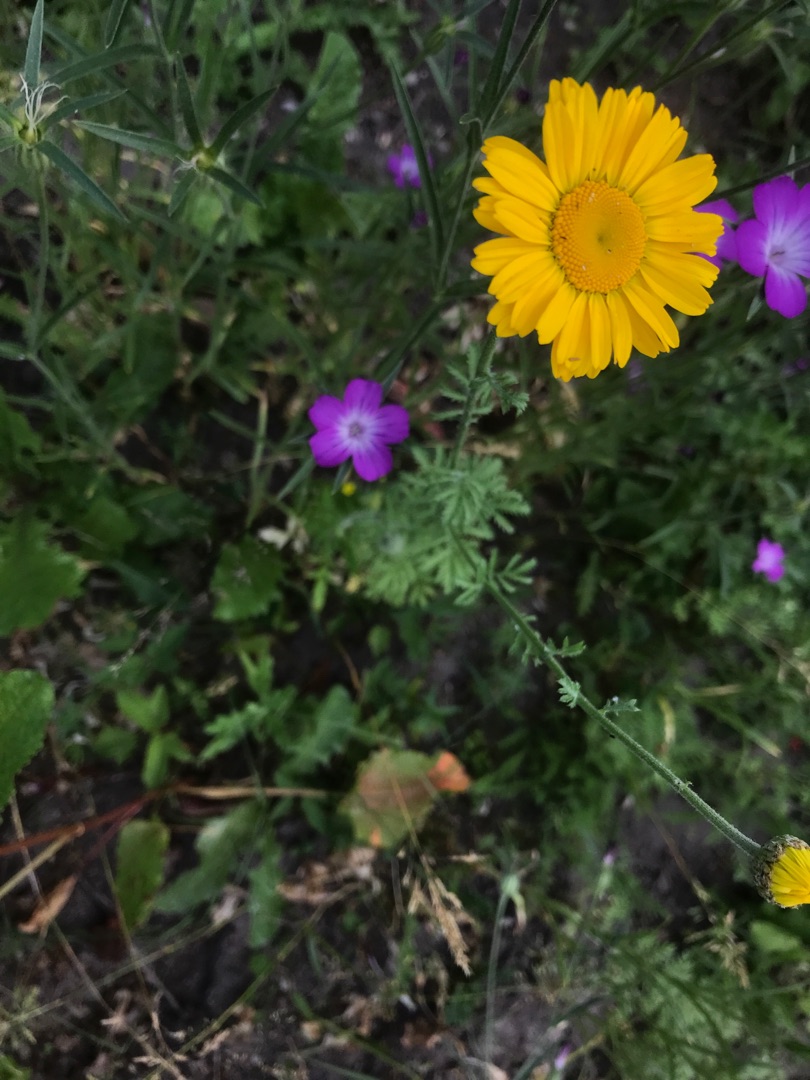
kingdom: Plantae
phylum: Tracheophyta
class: Magnoliopsida
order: Asterales
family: Asteraceae
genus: Cota
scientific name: Cota tinctoria
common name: Farve-gåseurt
